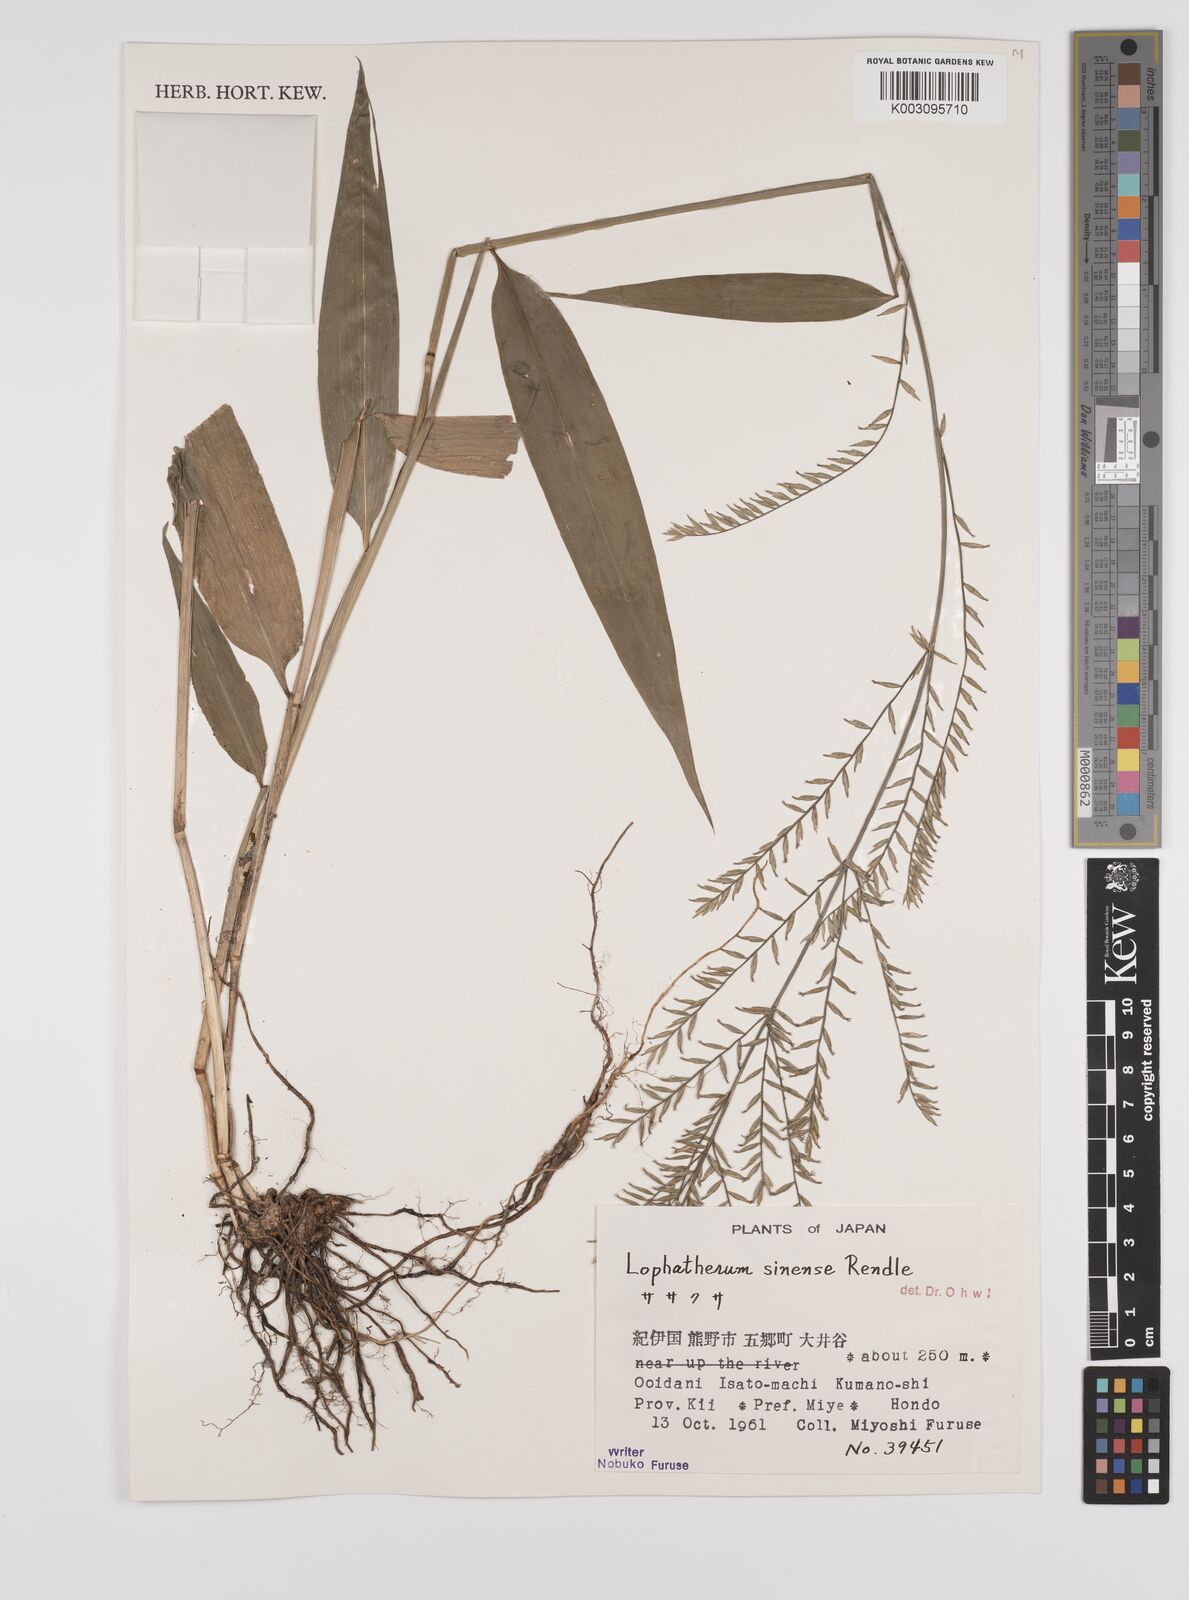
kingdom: Plantae
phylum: Tracheophyta
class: Liliopsida
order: Poales
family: Poaceae
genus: Lophatherum
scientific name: Lophatherum gracile
